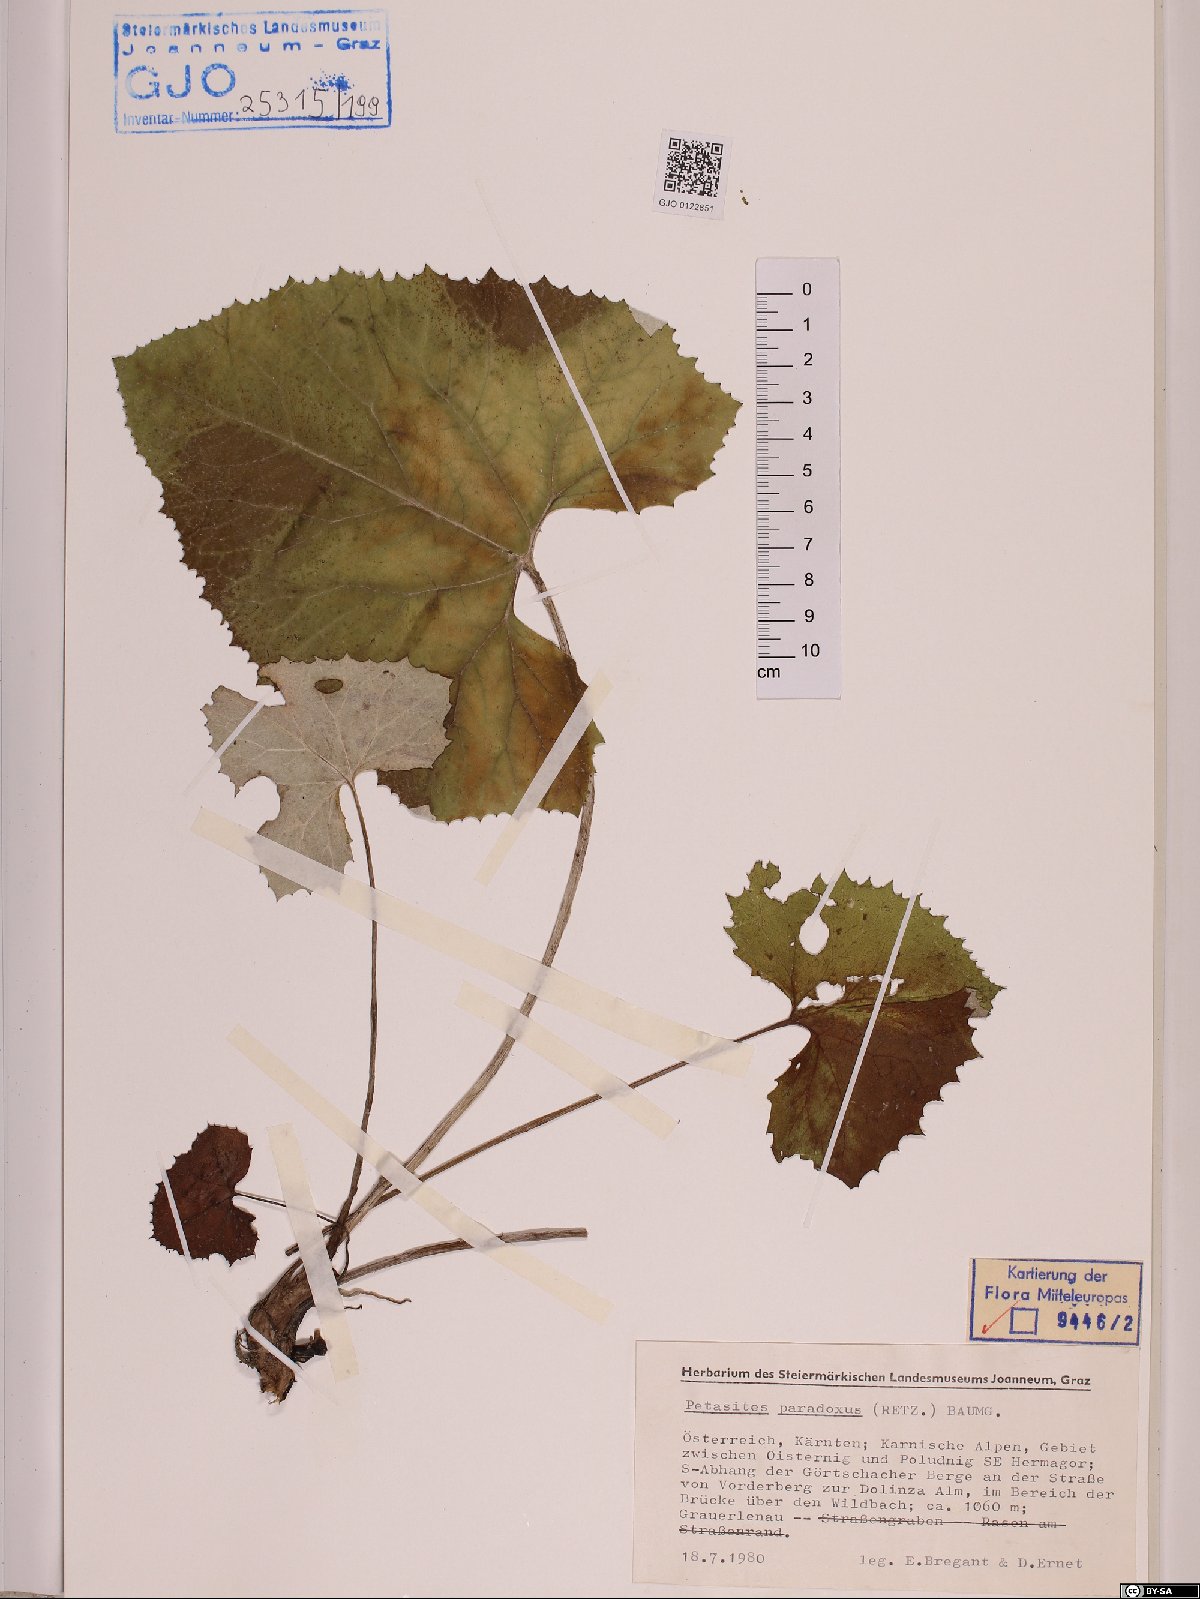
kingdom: Plantae
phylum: Tracheophyta
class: Magnoliopsida
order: Asterales
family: Asteraceae
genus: Petasites
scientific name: Petasites paradoxus
